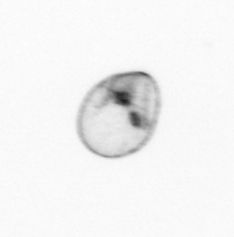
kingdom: Chromista
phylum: Myzozoa
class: Dinophyceae
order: Noctilucales
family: Noctilucaceae
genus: Noctiluca
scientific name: Noctiluca scintillans
